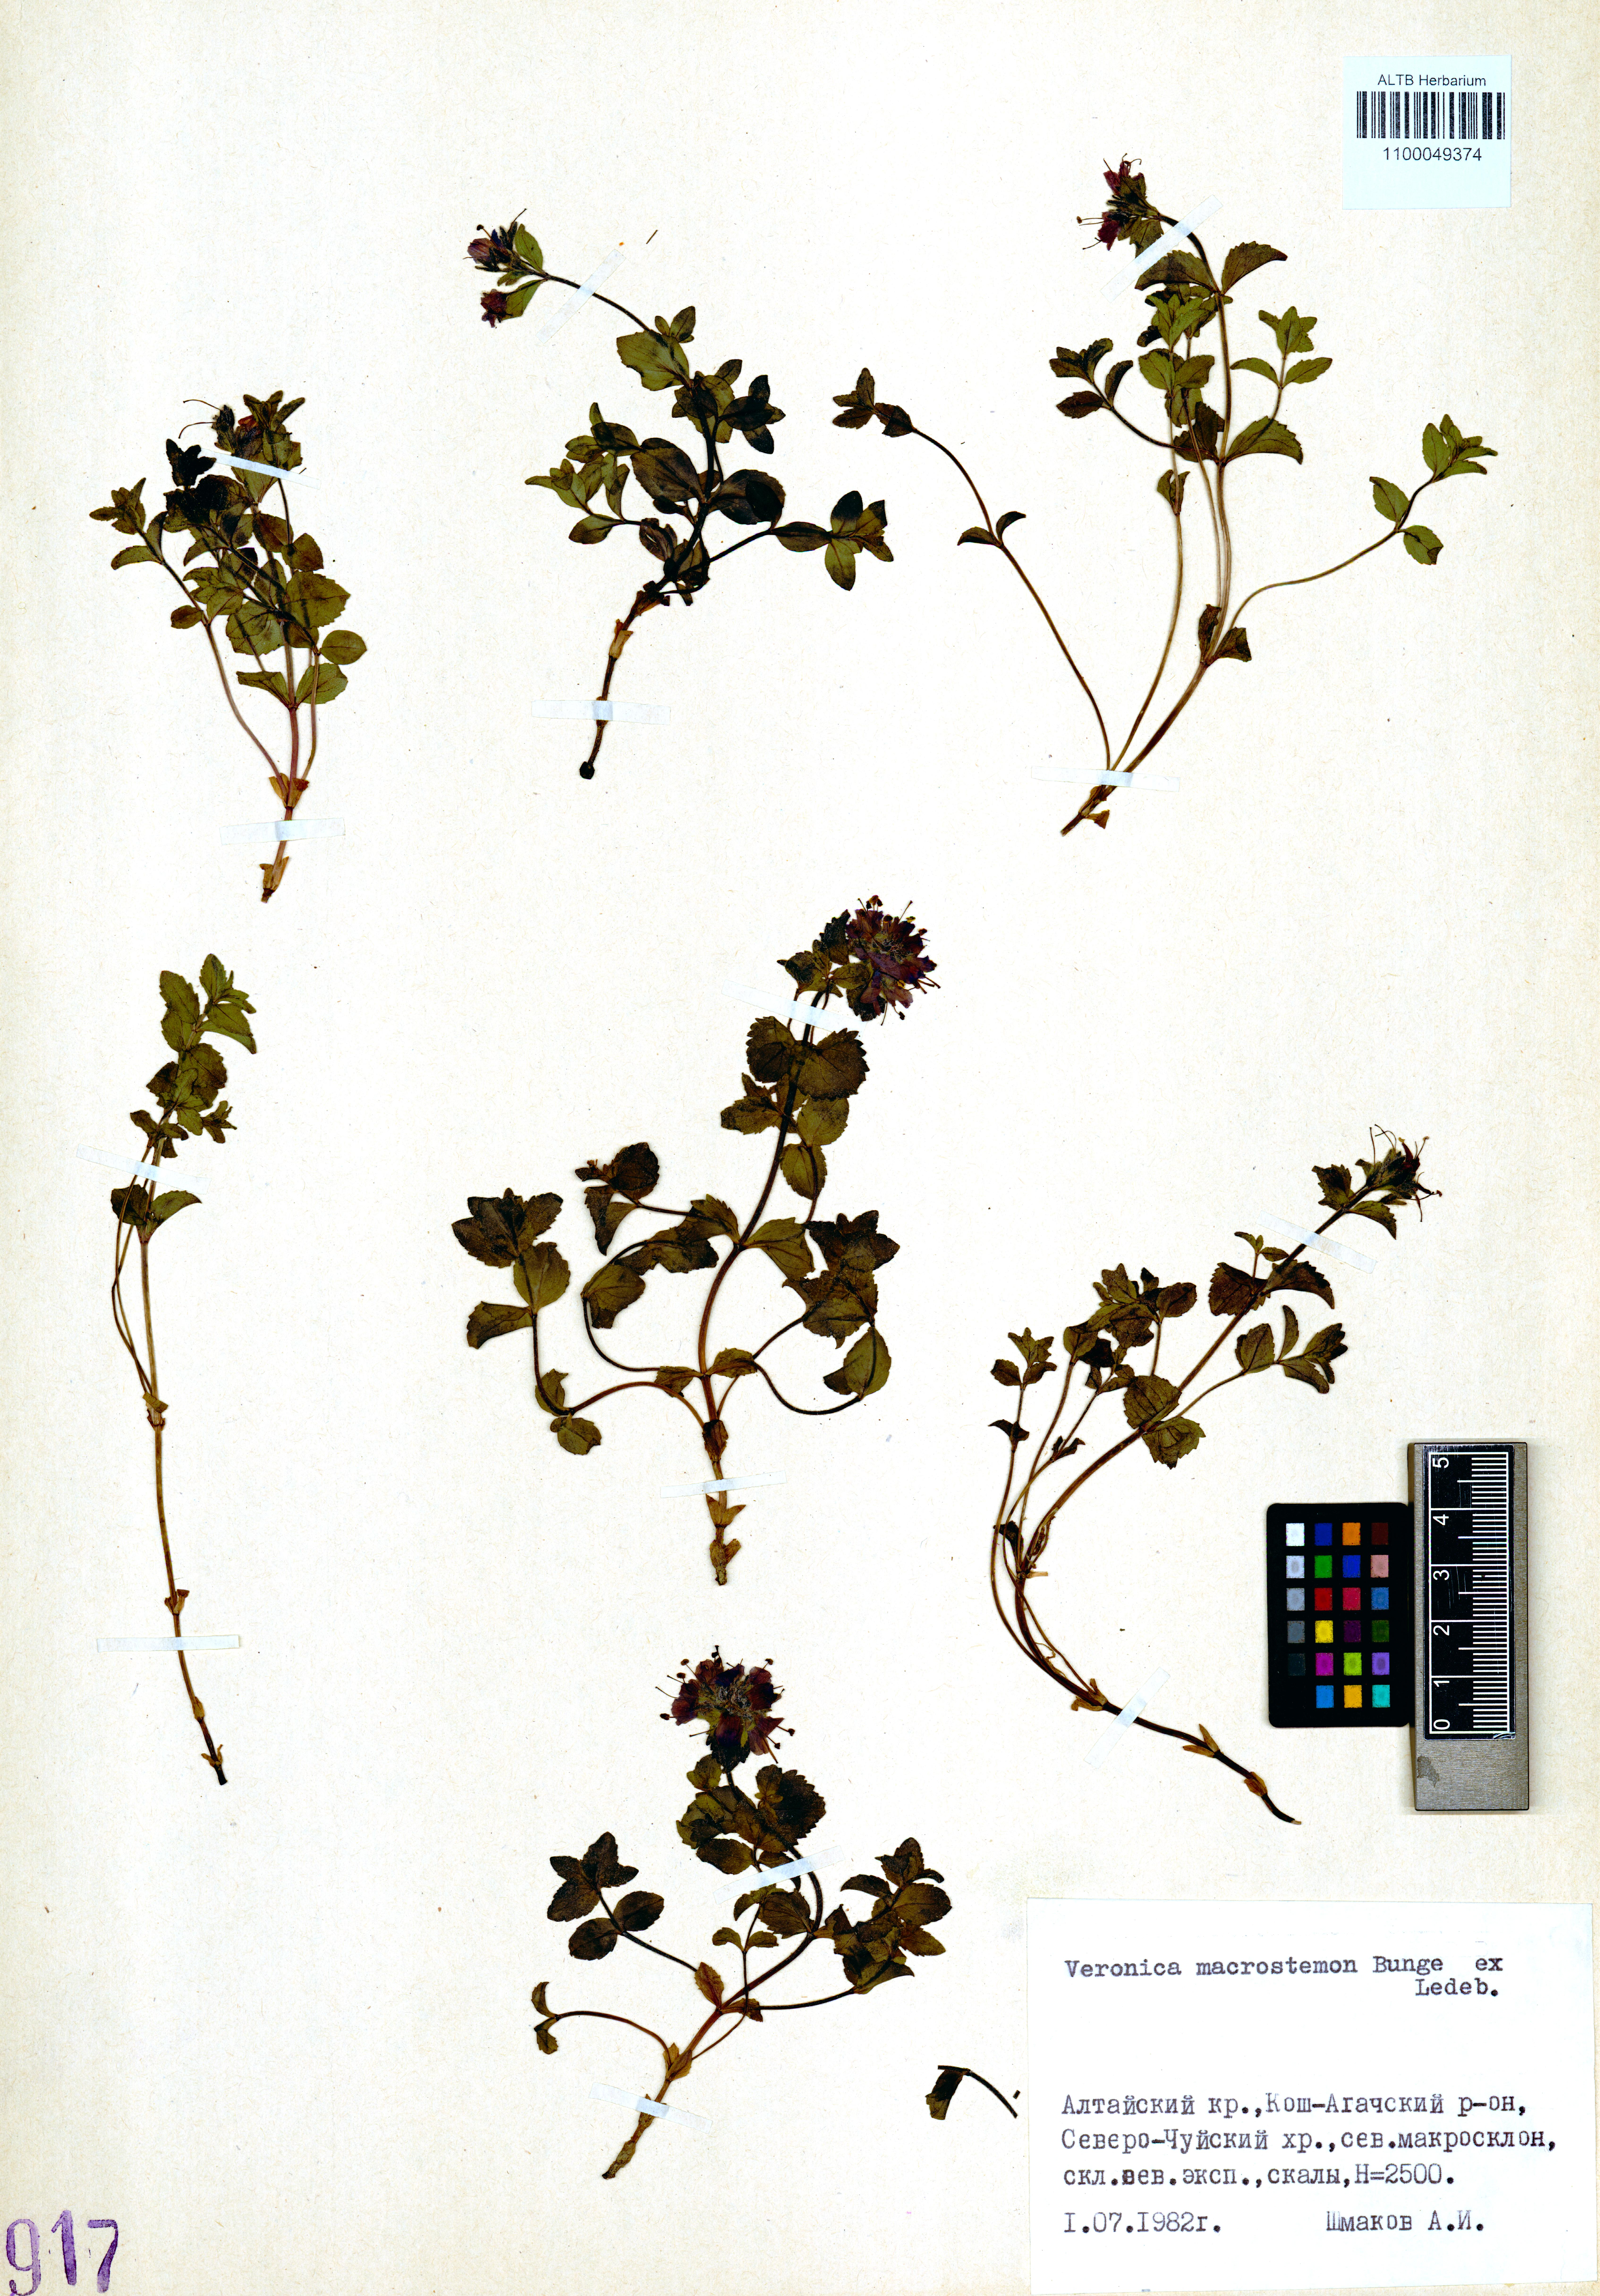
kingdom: Plantae
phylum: Tracheophyta
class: Magnoliopsida
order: Lamiales
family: Plantaginaceae
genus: Veronica
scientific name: Veronica macrostemon
